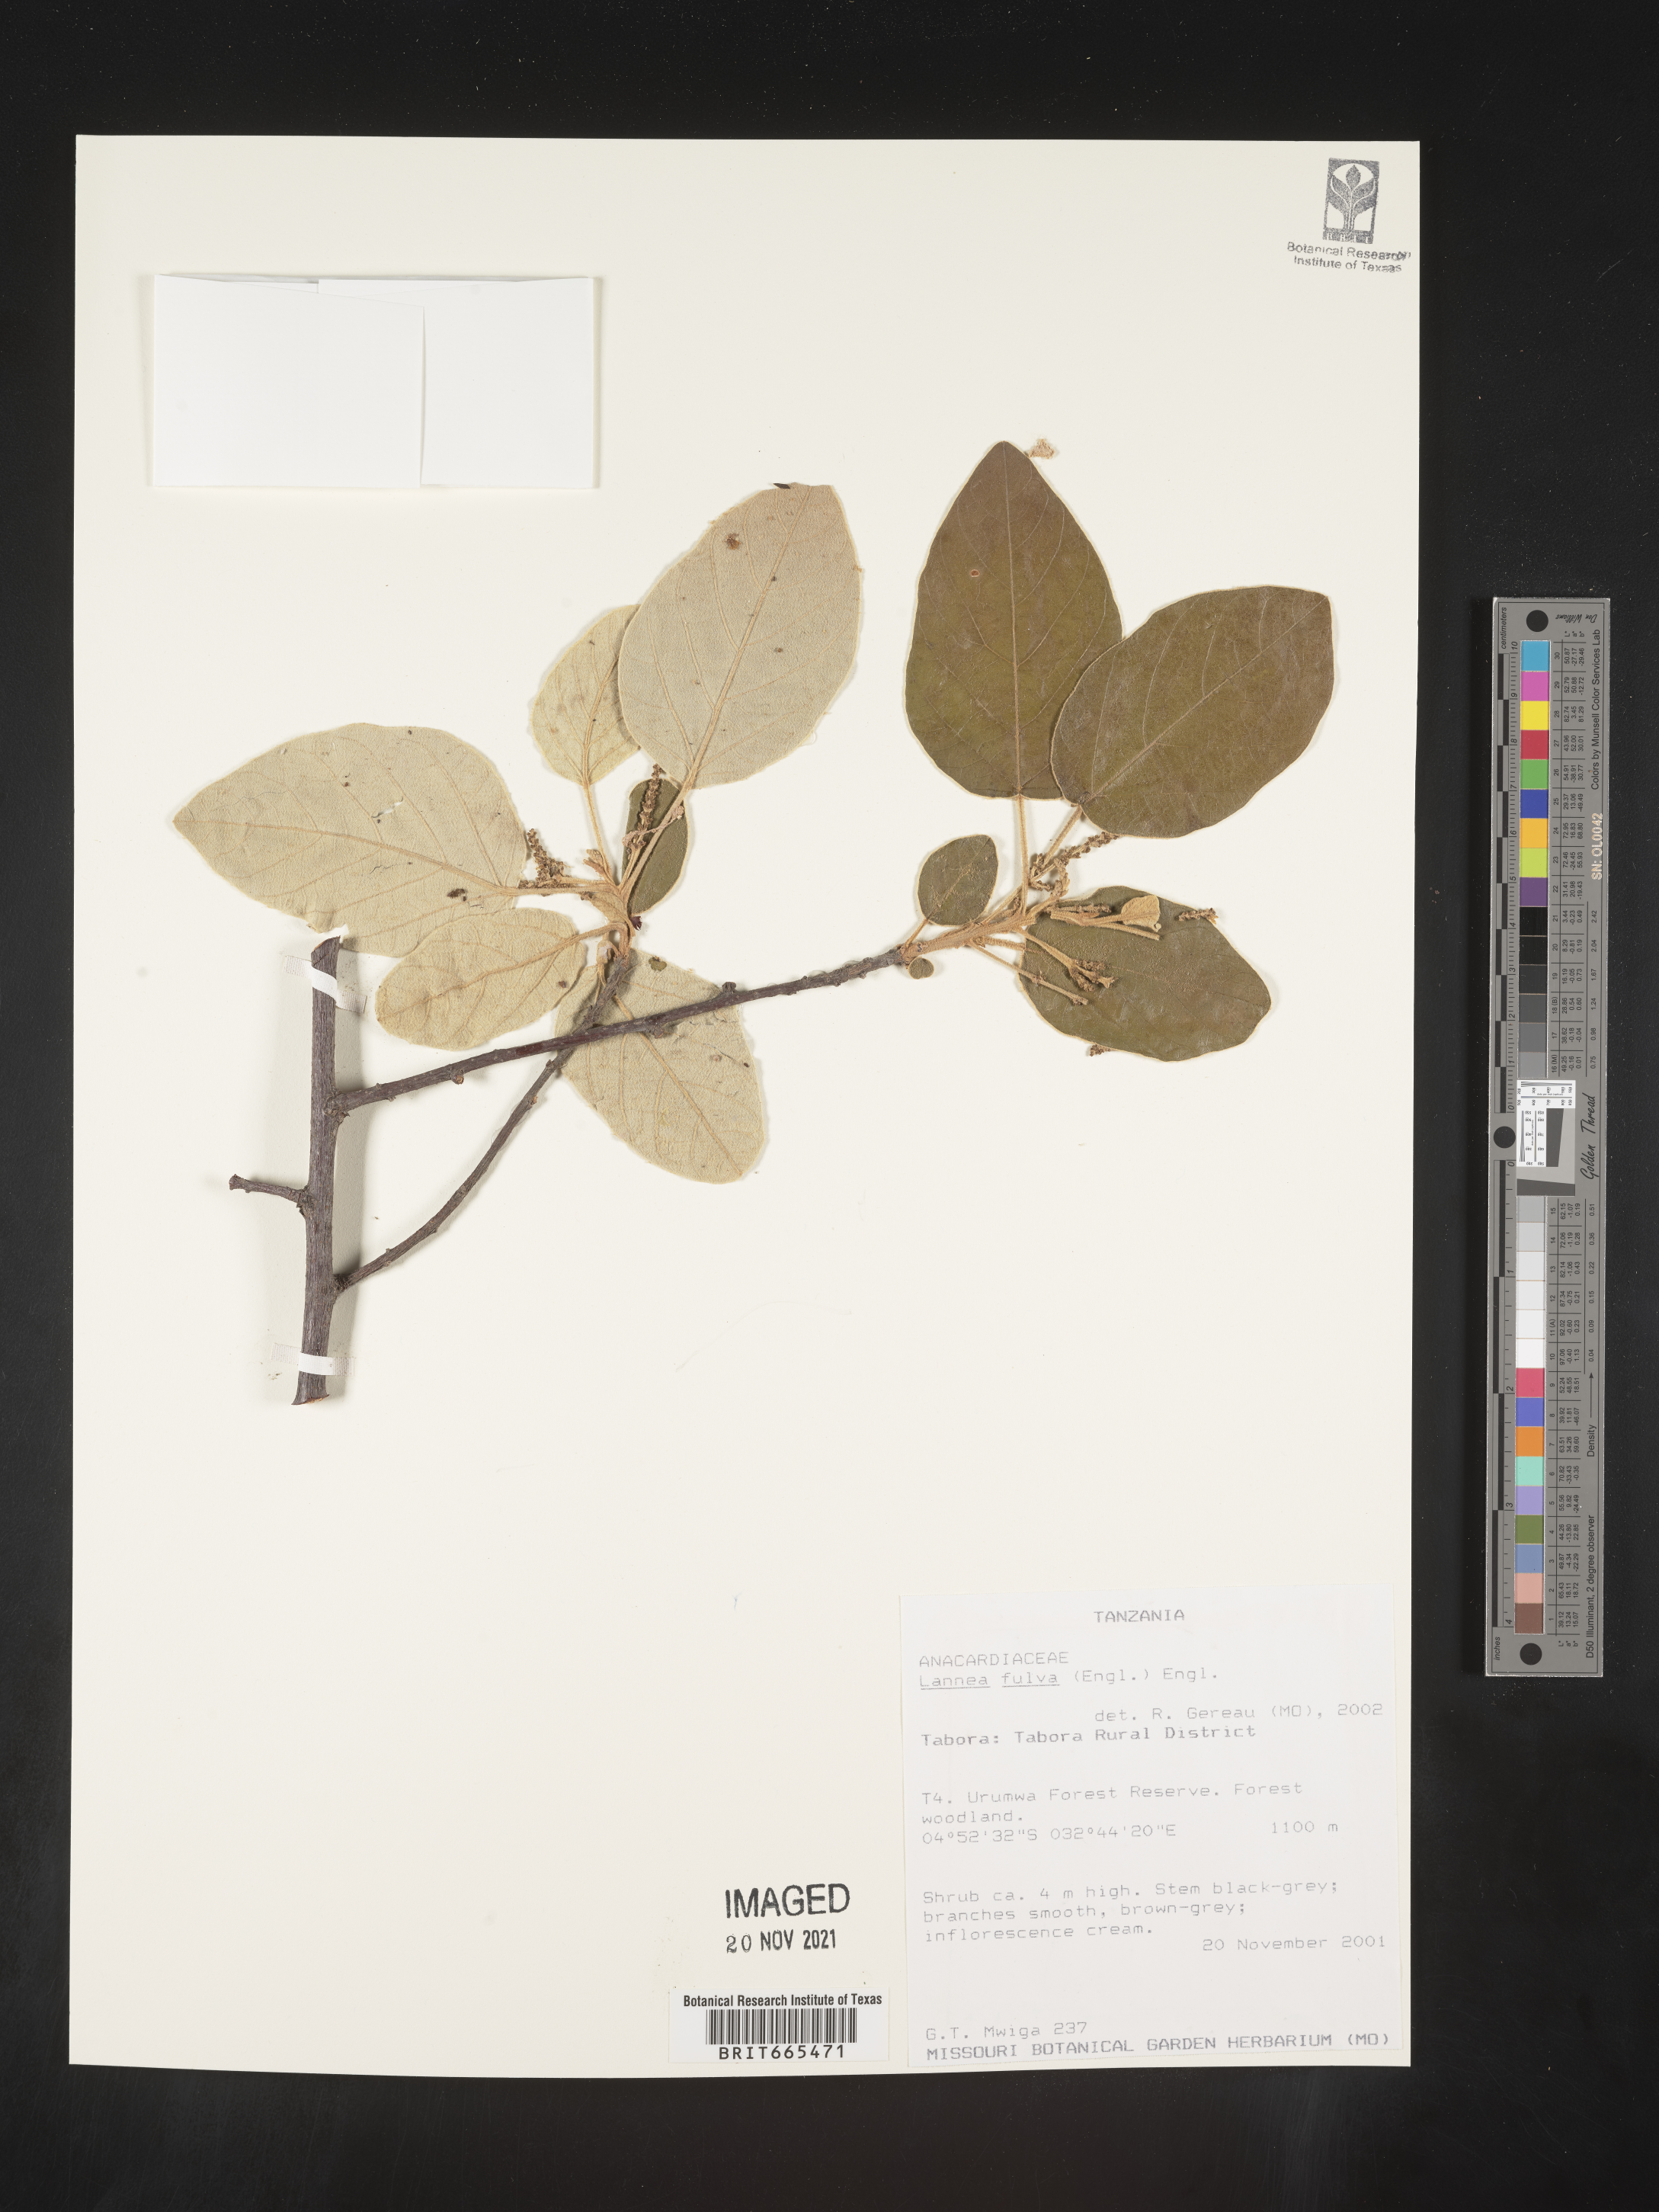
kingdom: Plantae
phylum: Tracheophyta
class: Magnoliopsida
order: Sapindales
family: Anacardiaceae
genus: Lannea
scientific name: Lannea
